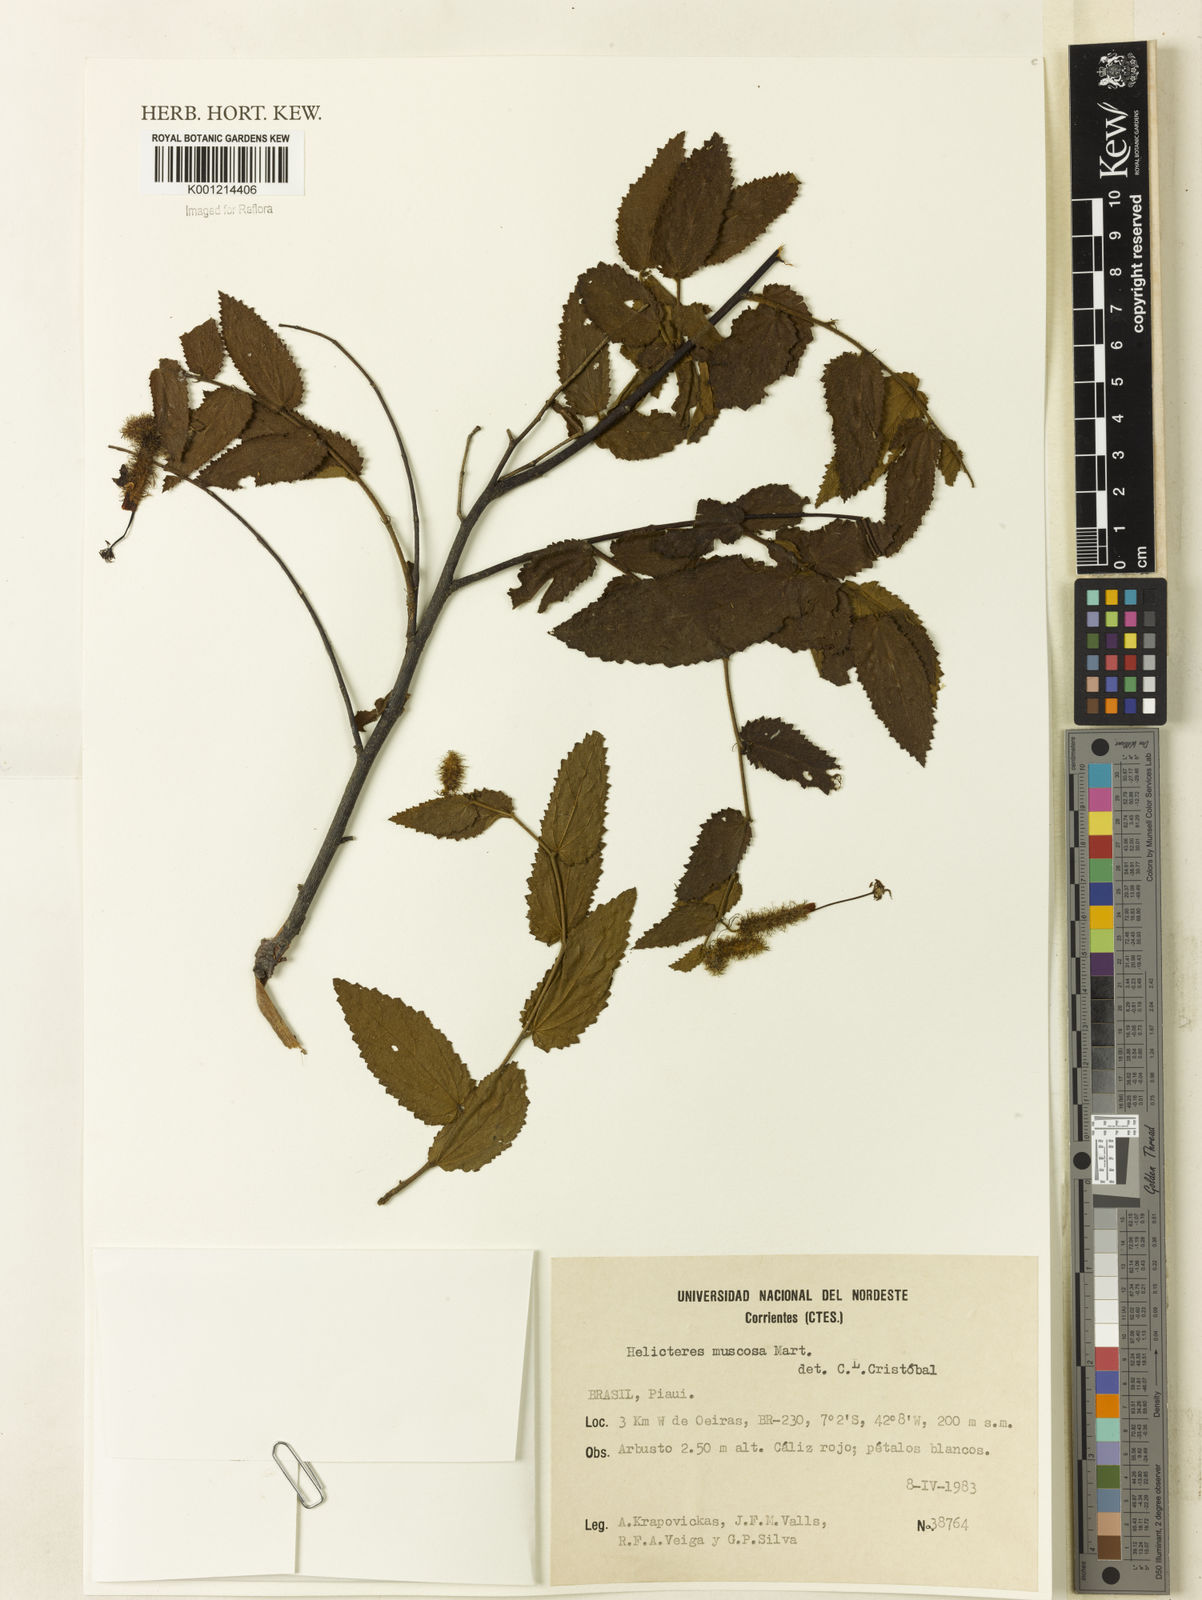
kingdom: Plantae
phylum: Tracheophyta
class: Magnoliopsida
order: Malvales
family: Malvaceae
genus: Helicteres
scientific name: Helicteres muscosa
